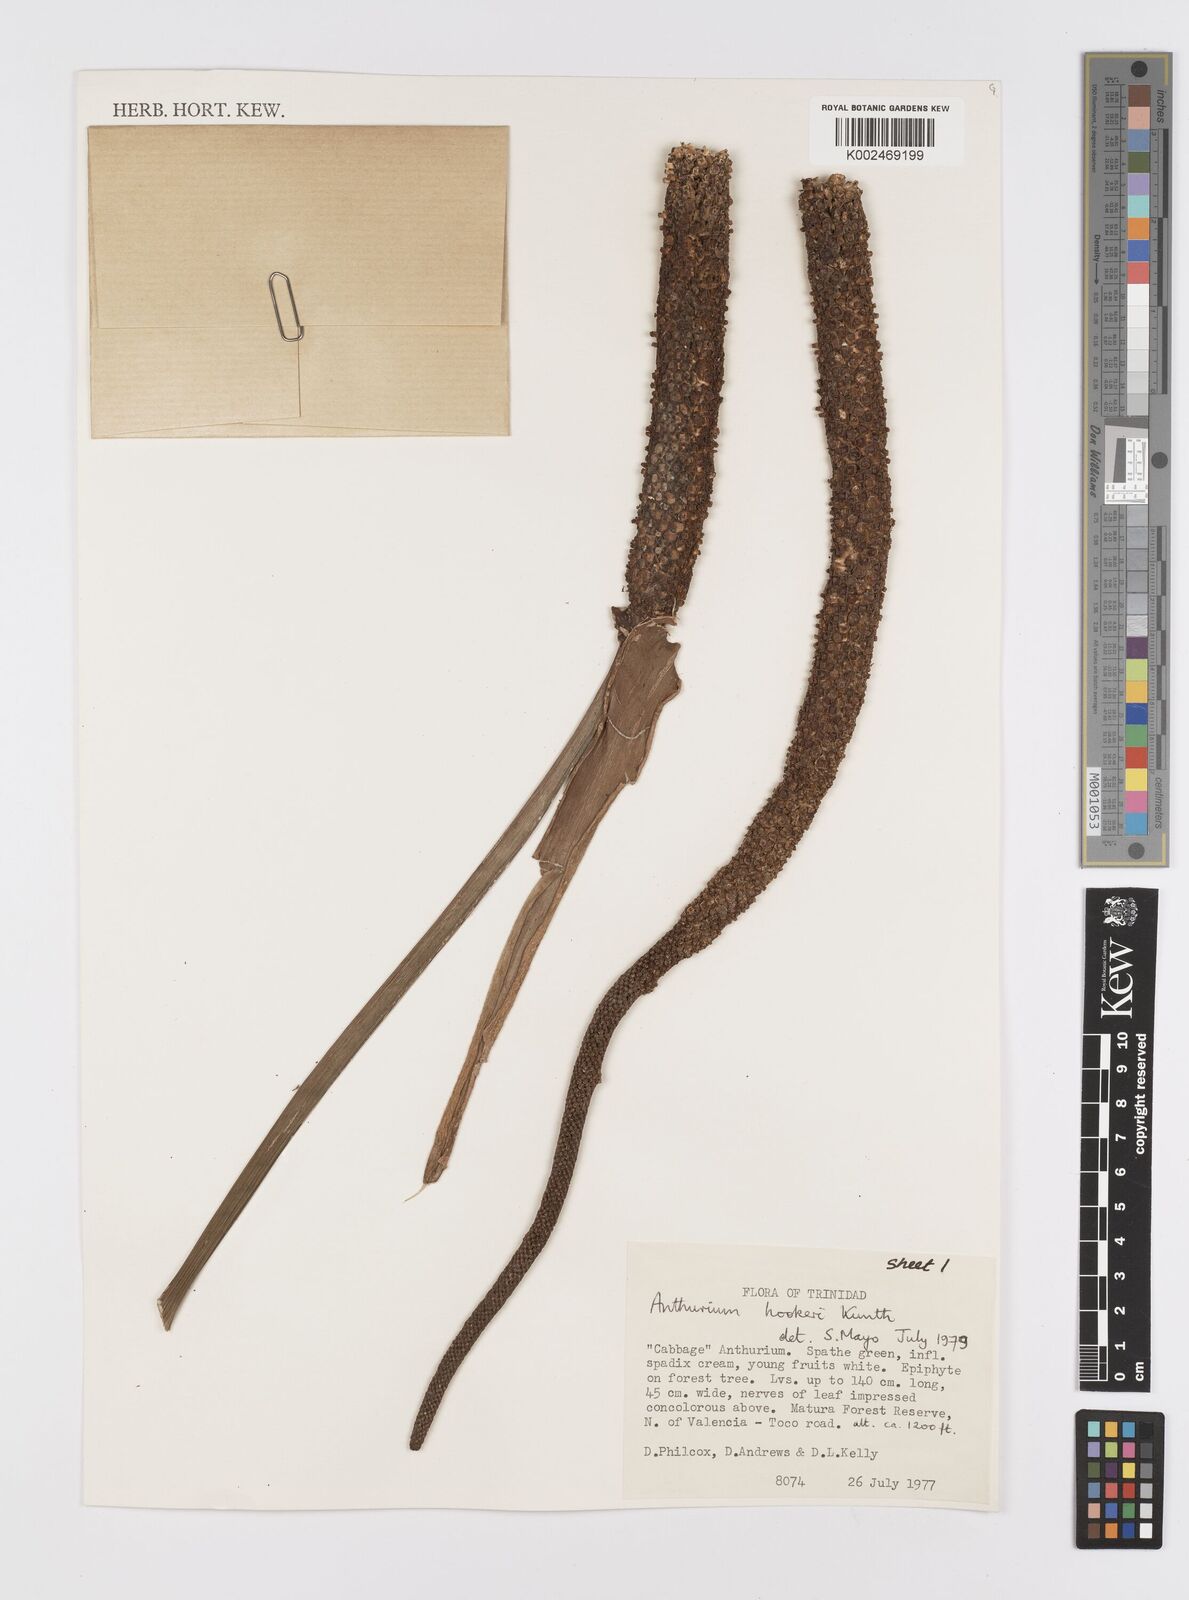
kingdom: Plantae
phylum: Tracheophyta
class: Liliopsida
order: Alismatales
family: Araceae
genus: Anthurium
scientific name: Anthurium hookeri
